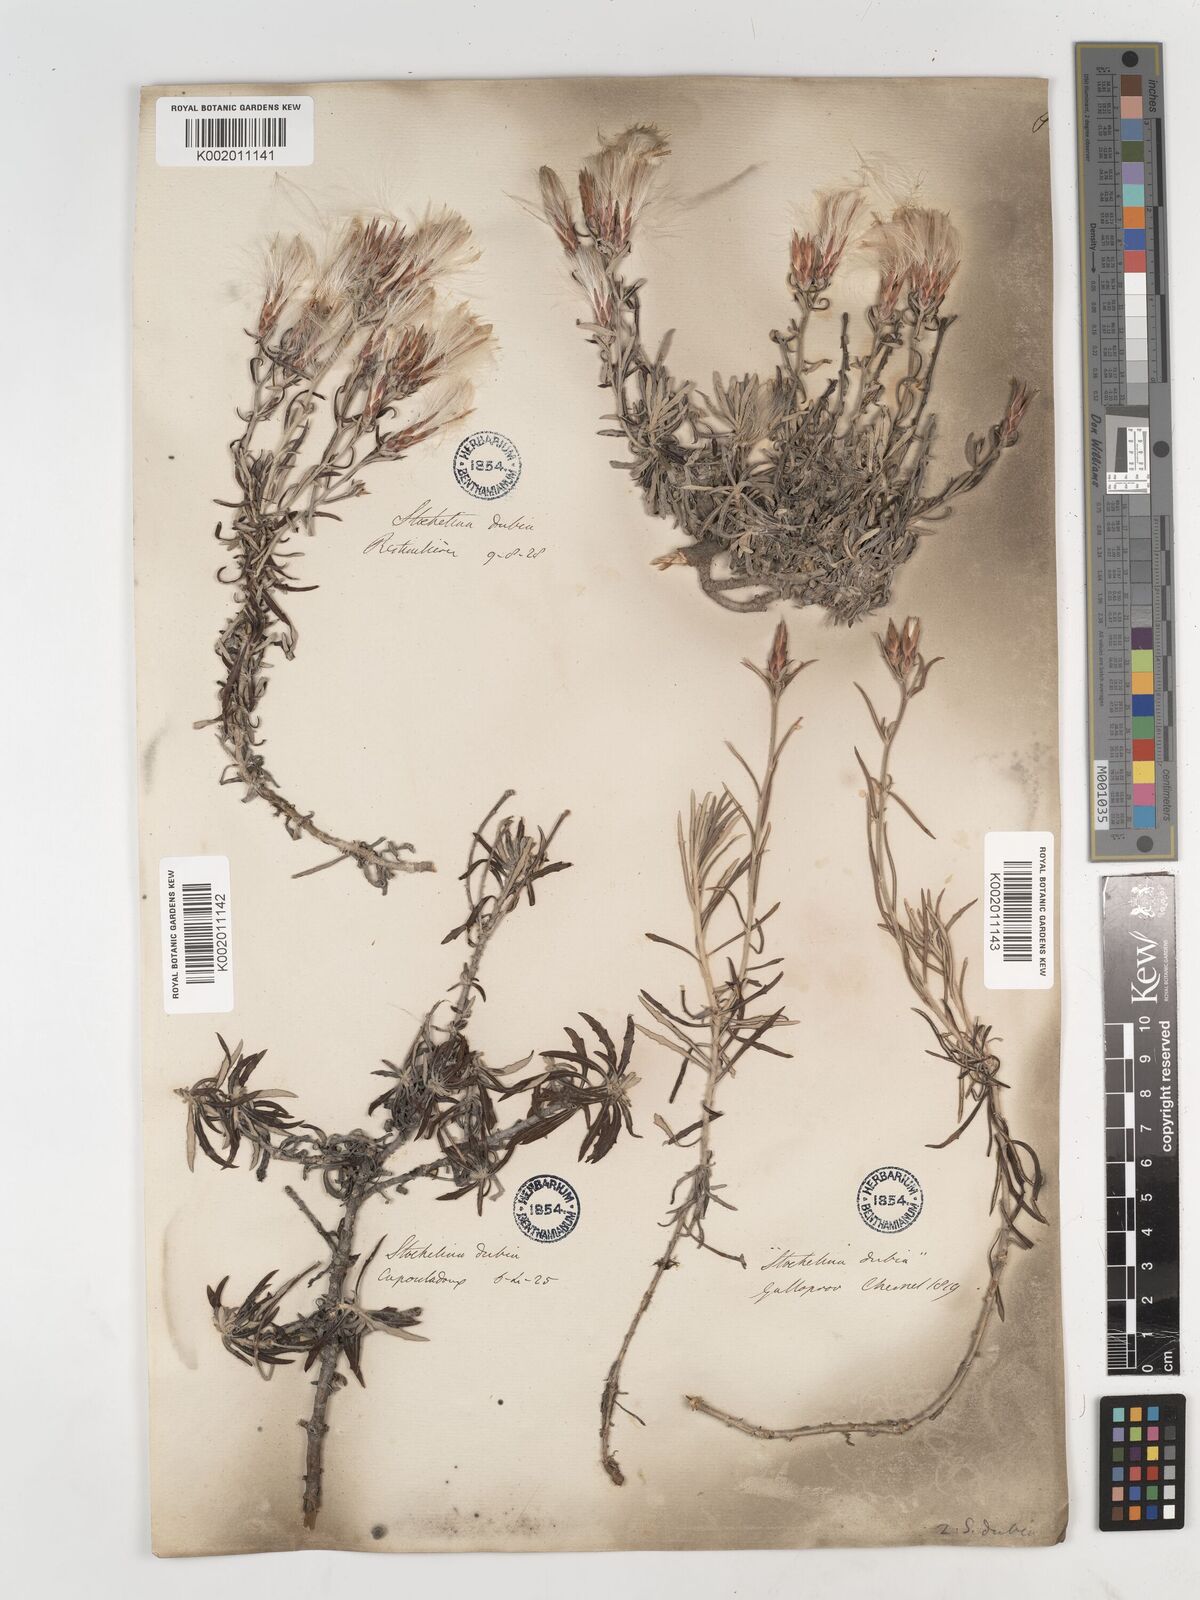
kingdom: Plantae
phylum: Tracheophyta
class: Magnoliopsida
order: Asterales
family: Asteraceae
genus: Staehelina
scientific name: Staehelina dubia
